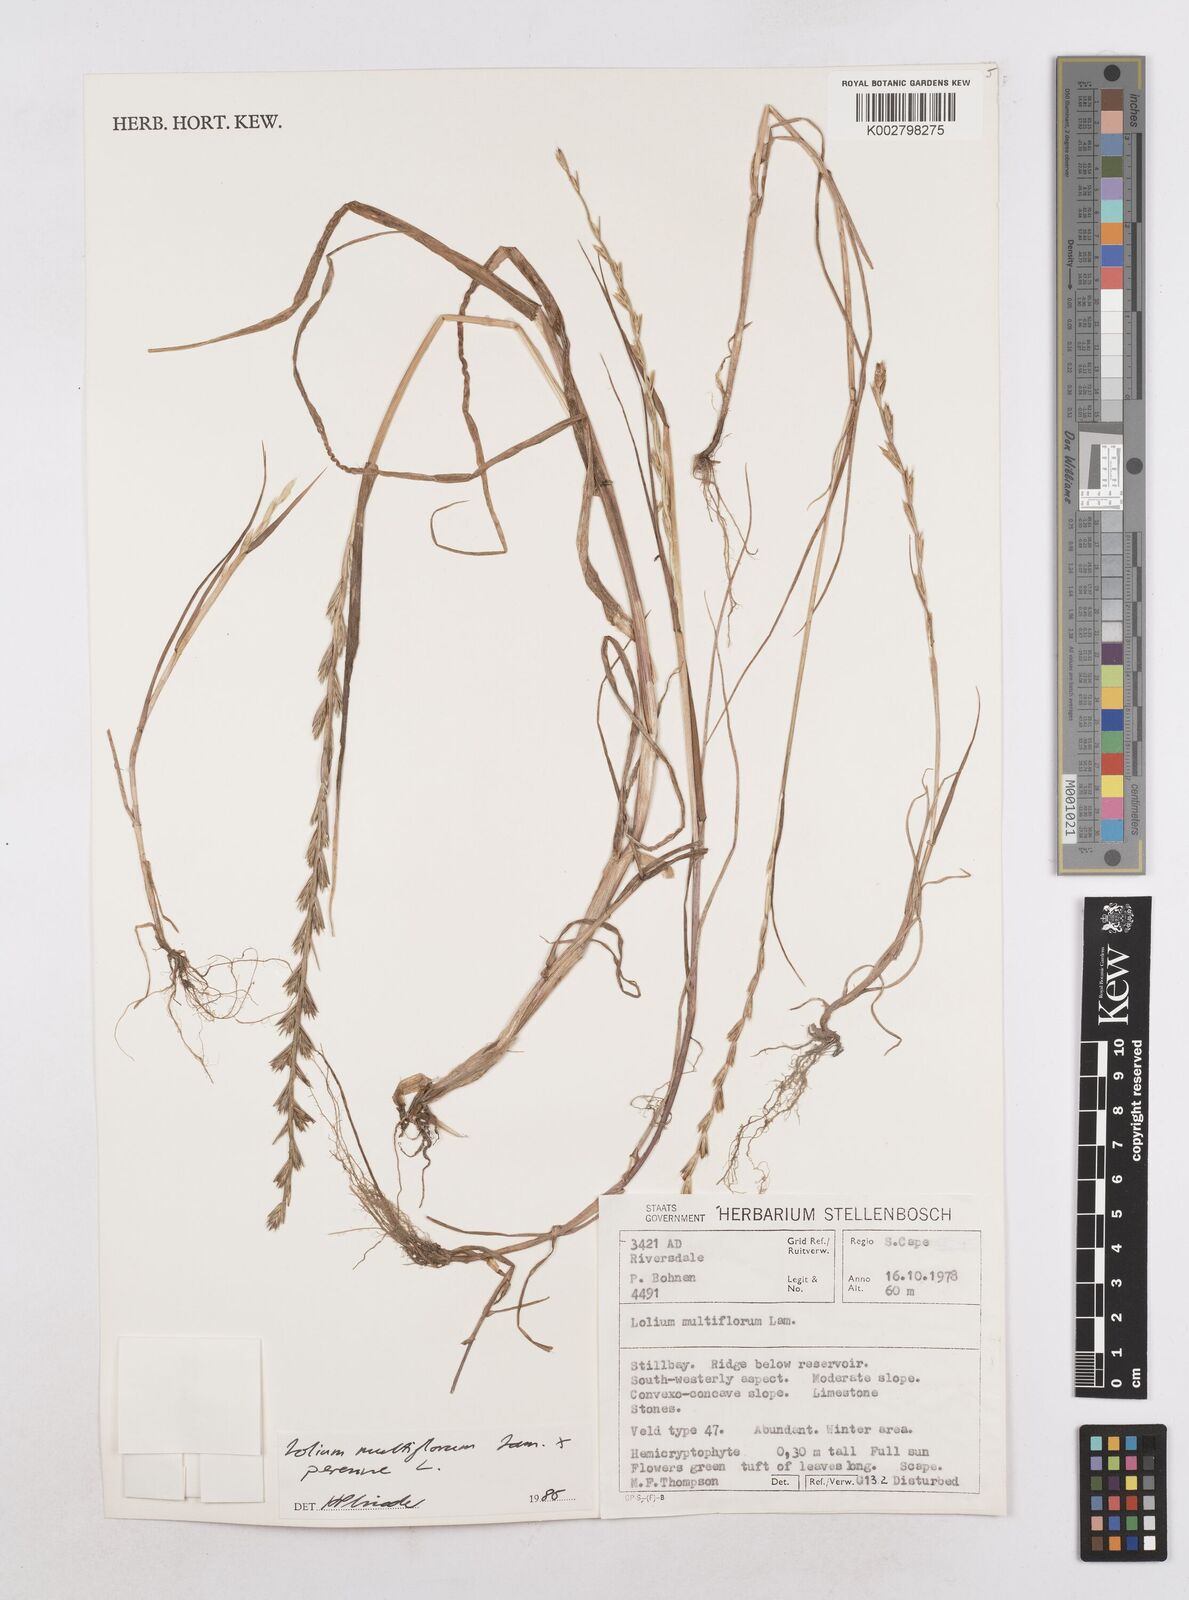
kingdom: Plantae
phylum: Tracheophyta
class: Liliopsida
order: Poales
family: Poaceae
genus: Lolium
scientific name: Lolium multiflorum
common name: Annual ryegrass
